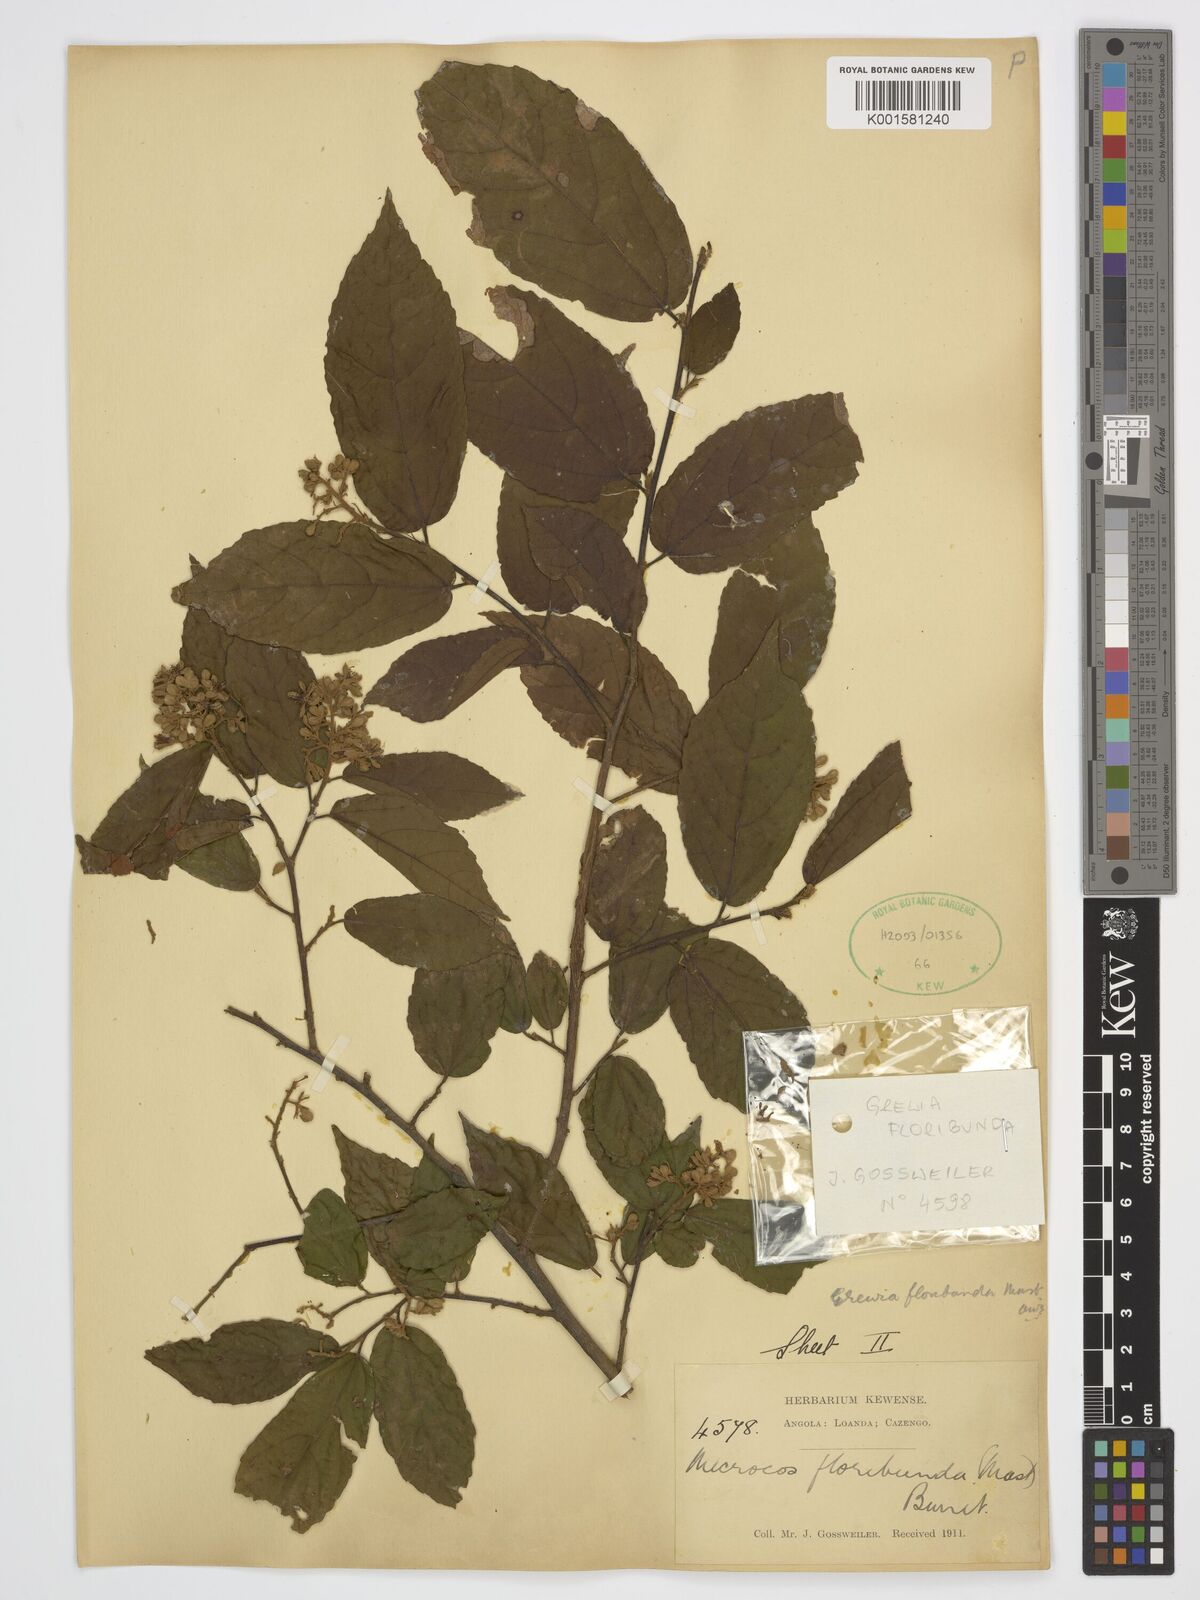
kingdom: Plantae
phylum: Tracheophyta
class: Magnoliopsida
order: Malvales
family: Malvaceae
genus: Microcos
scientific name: Microcos floribunda
